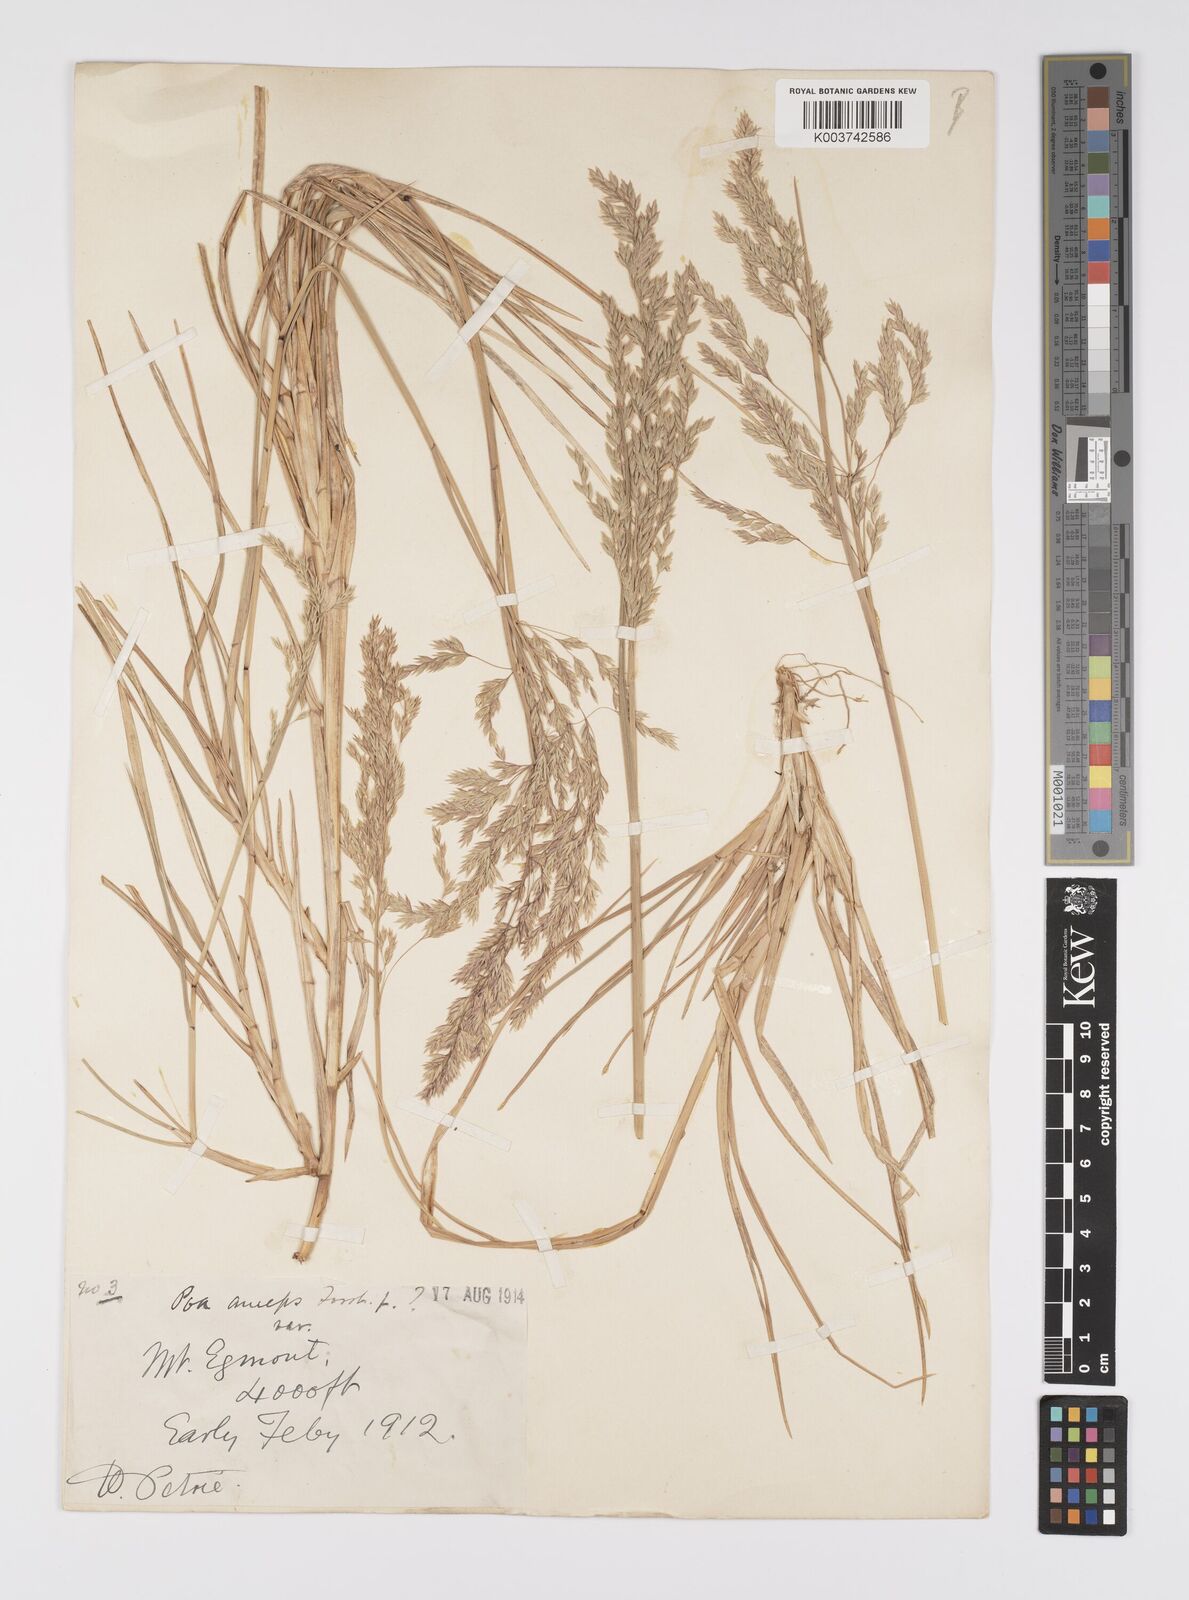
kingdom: Plantae
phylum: Tracheophyta
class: Liliopsida
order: Poales
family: Poaceae
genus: Poa
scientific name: Poa anceps
